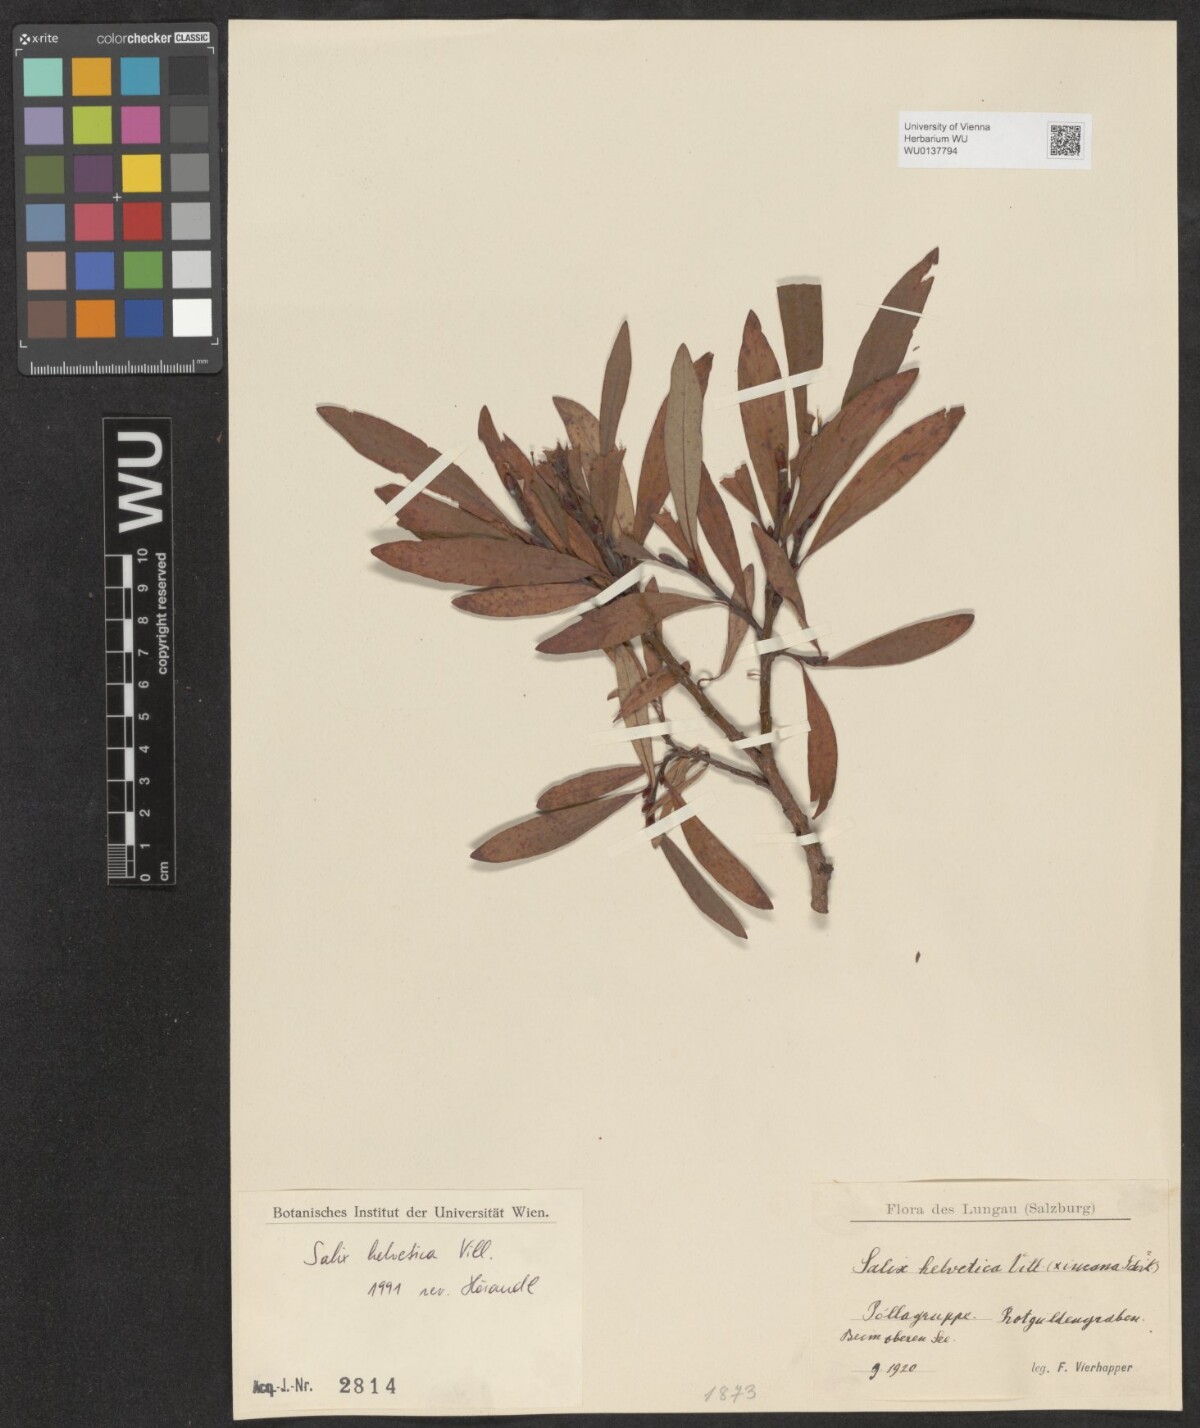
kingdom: Plantae
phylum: Tracheophyta
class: Magnoliopsida
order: Malpighiales
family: Salicaceae
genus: Salix
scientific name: Salix helvetica
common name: Swiss willow
